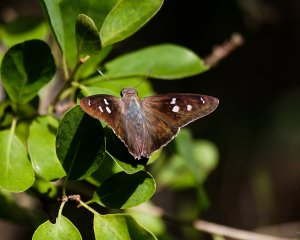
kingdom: Animalia
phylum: Arthropoda
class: Insecta
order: Lepidoptera
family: Hesperiidae
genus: Polygonus
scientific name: Polygonus leo
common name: Hammock Skipper
